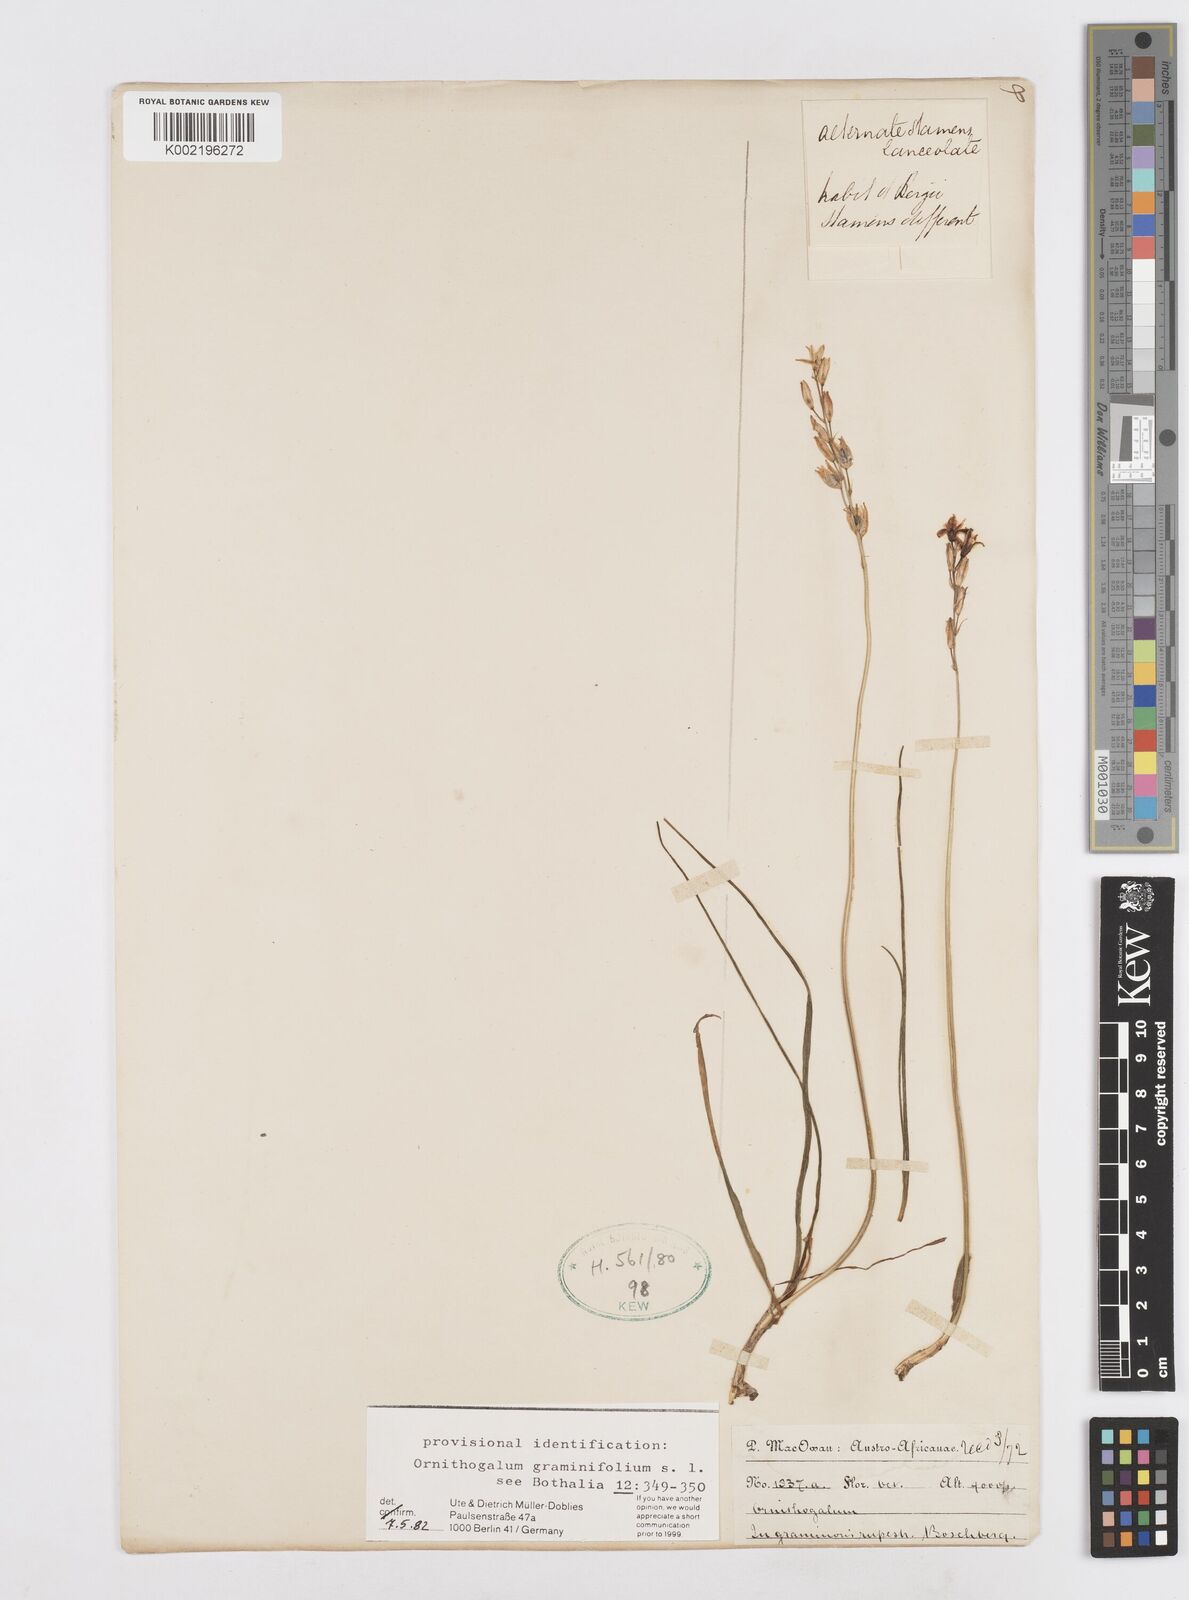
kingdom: Plantae
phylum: Tracheophyta
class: Liliopsida
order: Asparagales
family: Asparagaceae
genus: Ornithogalum
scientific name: Ornithogalum graminifolium
